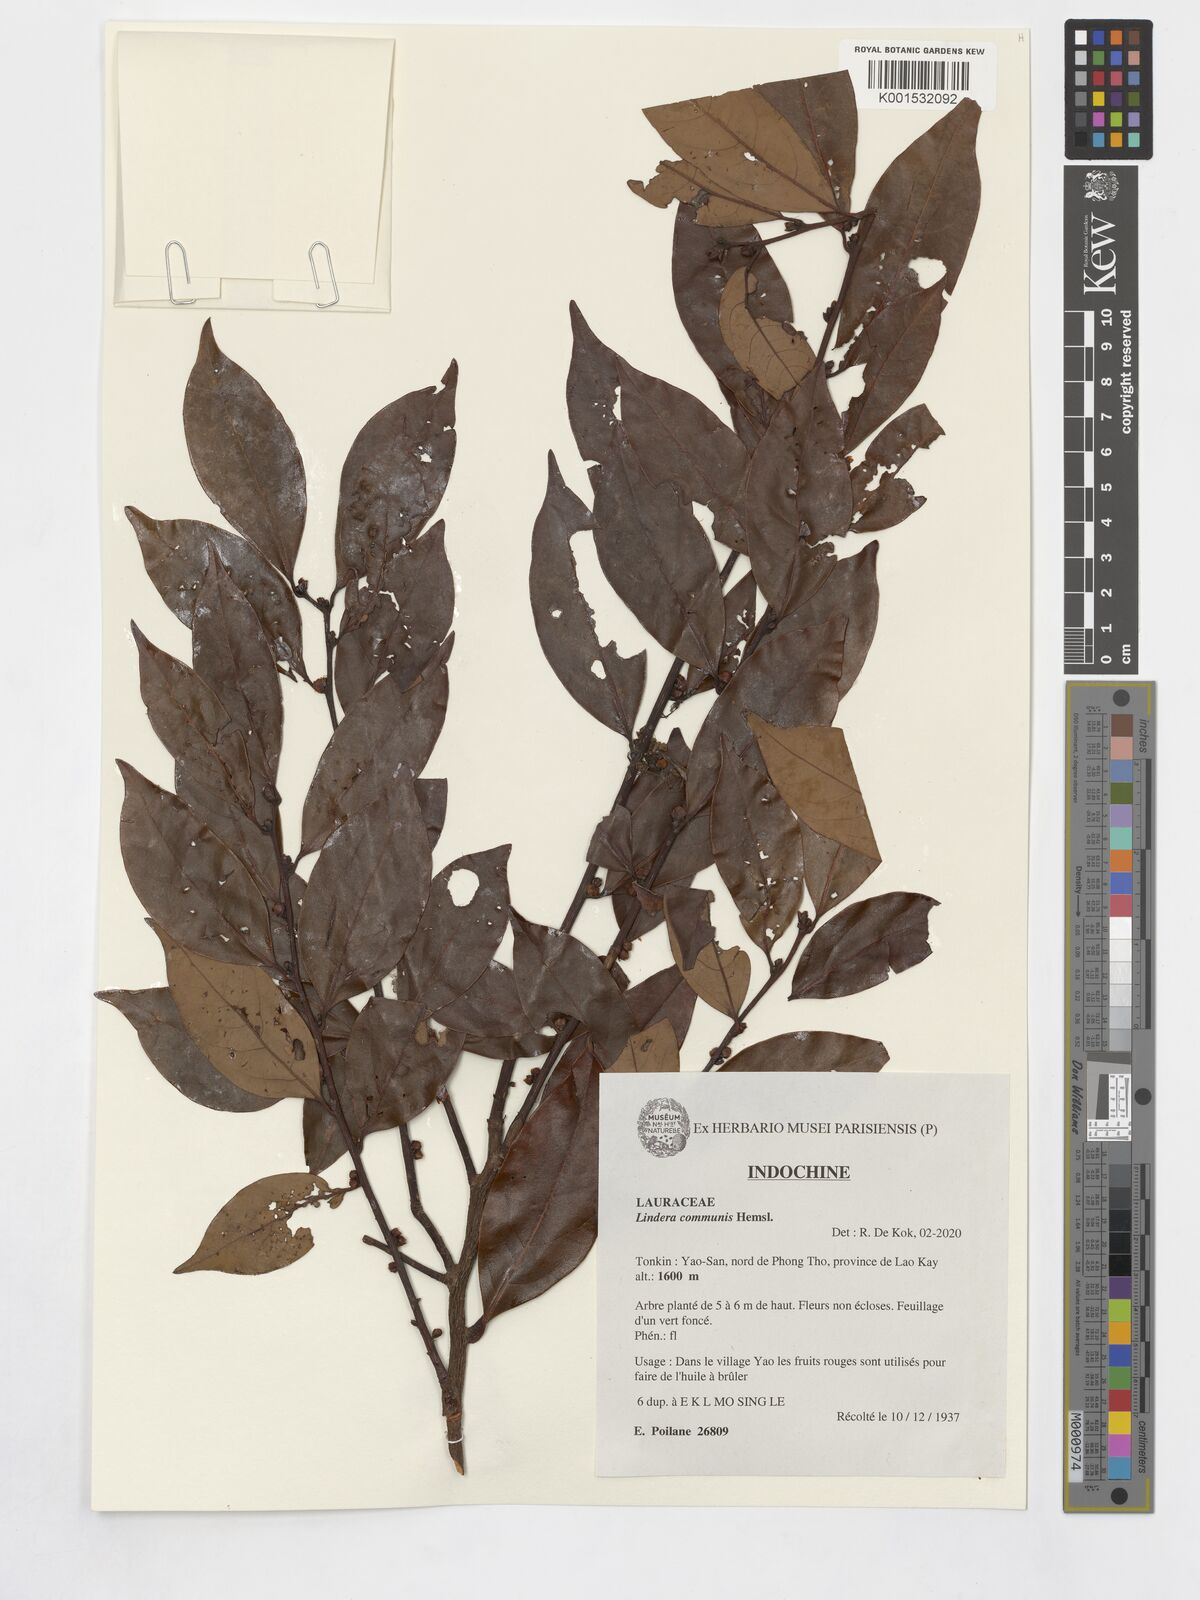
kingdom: Plantae
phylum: Tracheophyta
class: Magnoliopsida
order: Laurales
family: Lauraceae
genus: Lindera
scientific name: Lindera communis
